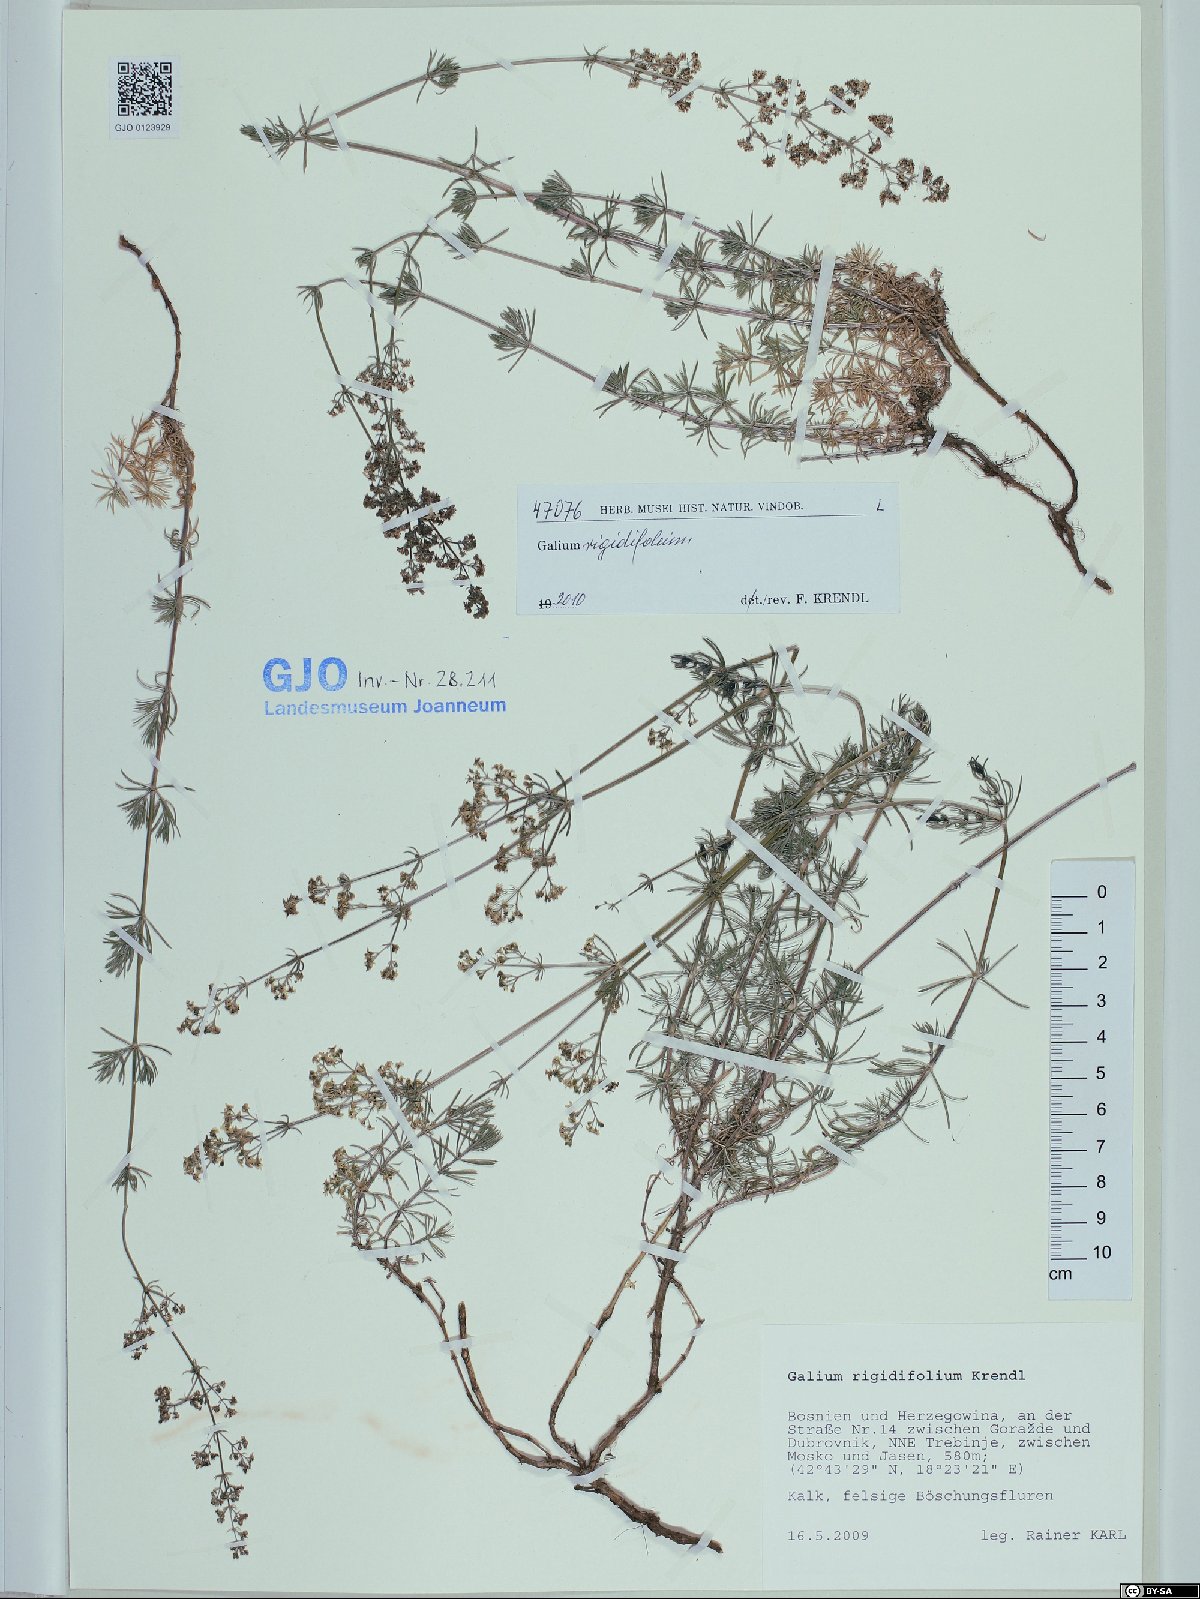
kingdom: Plantae
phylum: Tracheophyta
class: Magnoliopsida
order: Gentianales
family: Rubiaceae
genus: Galium
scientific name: Galium rigidifolium
